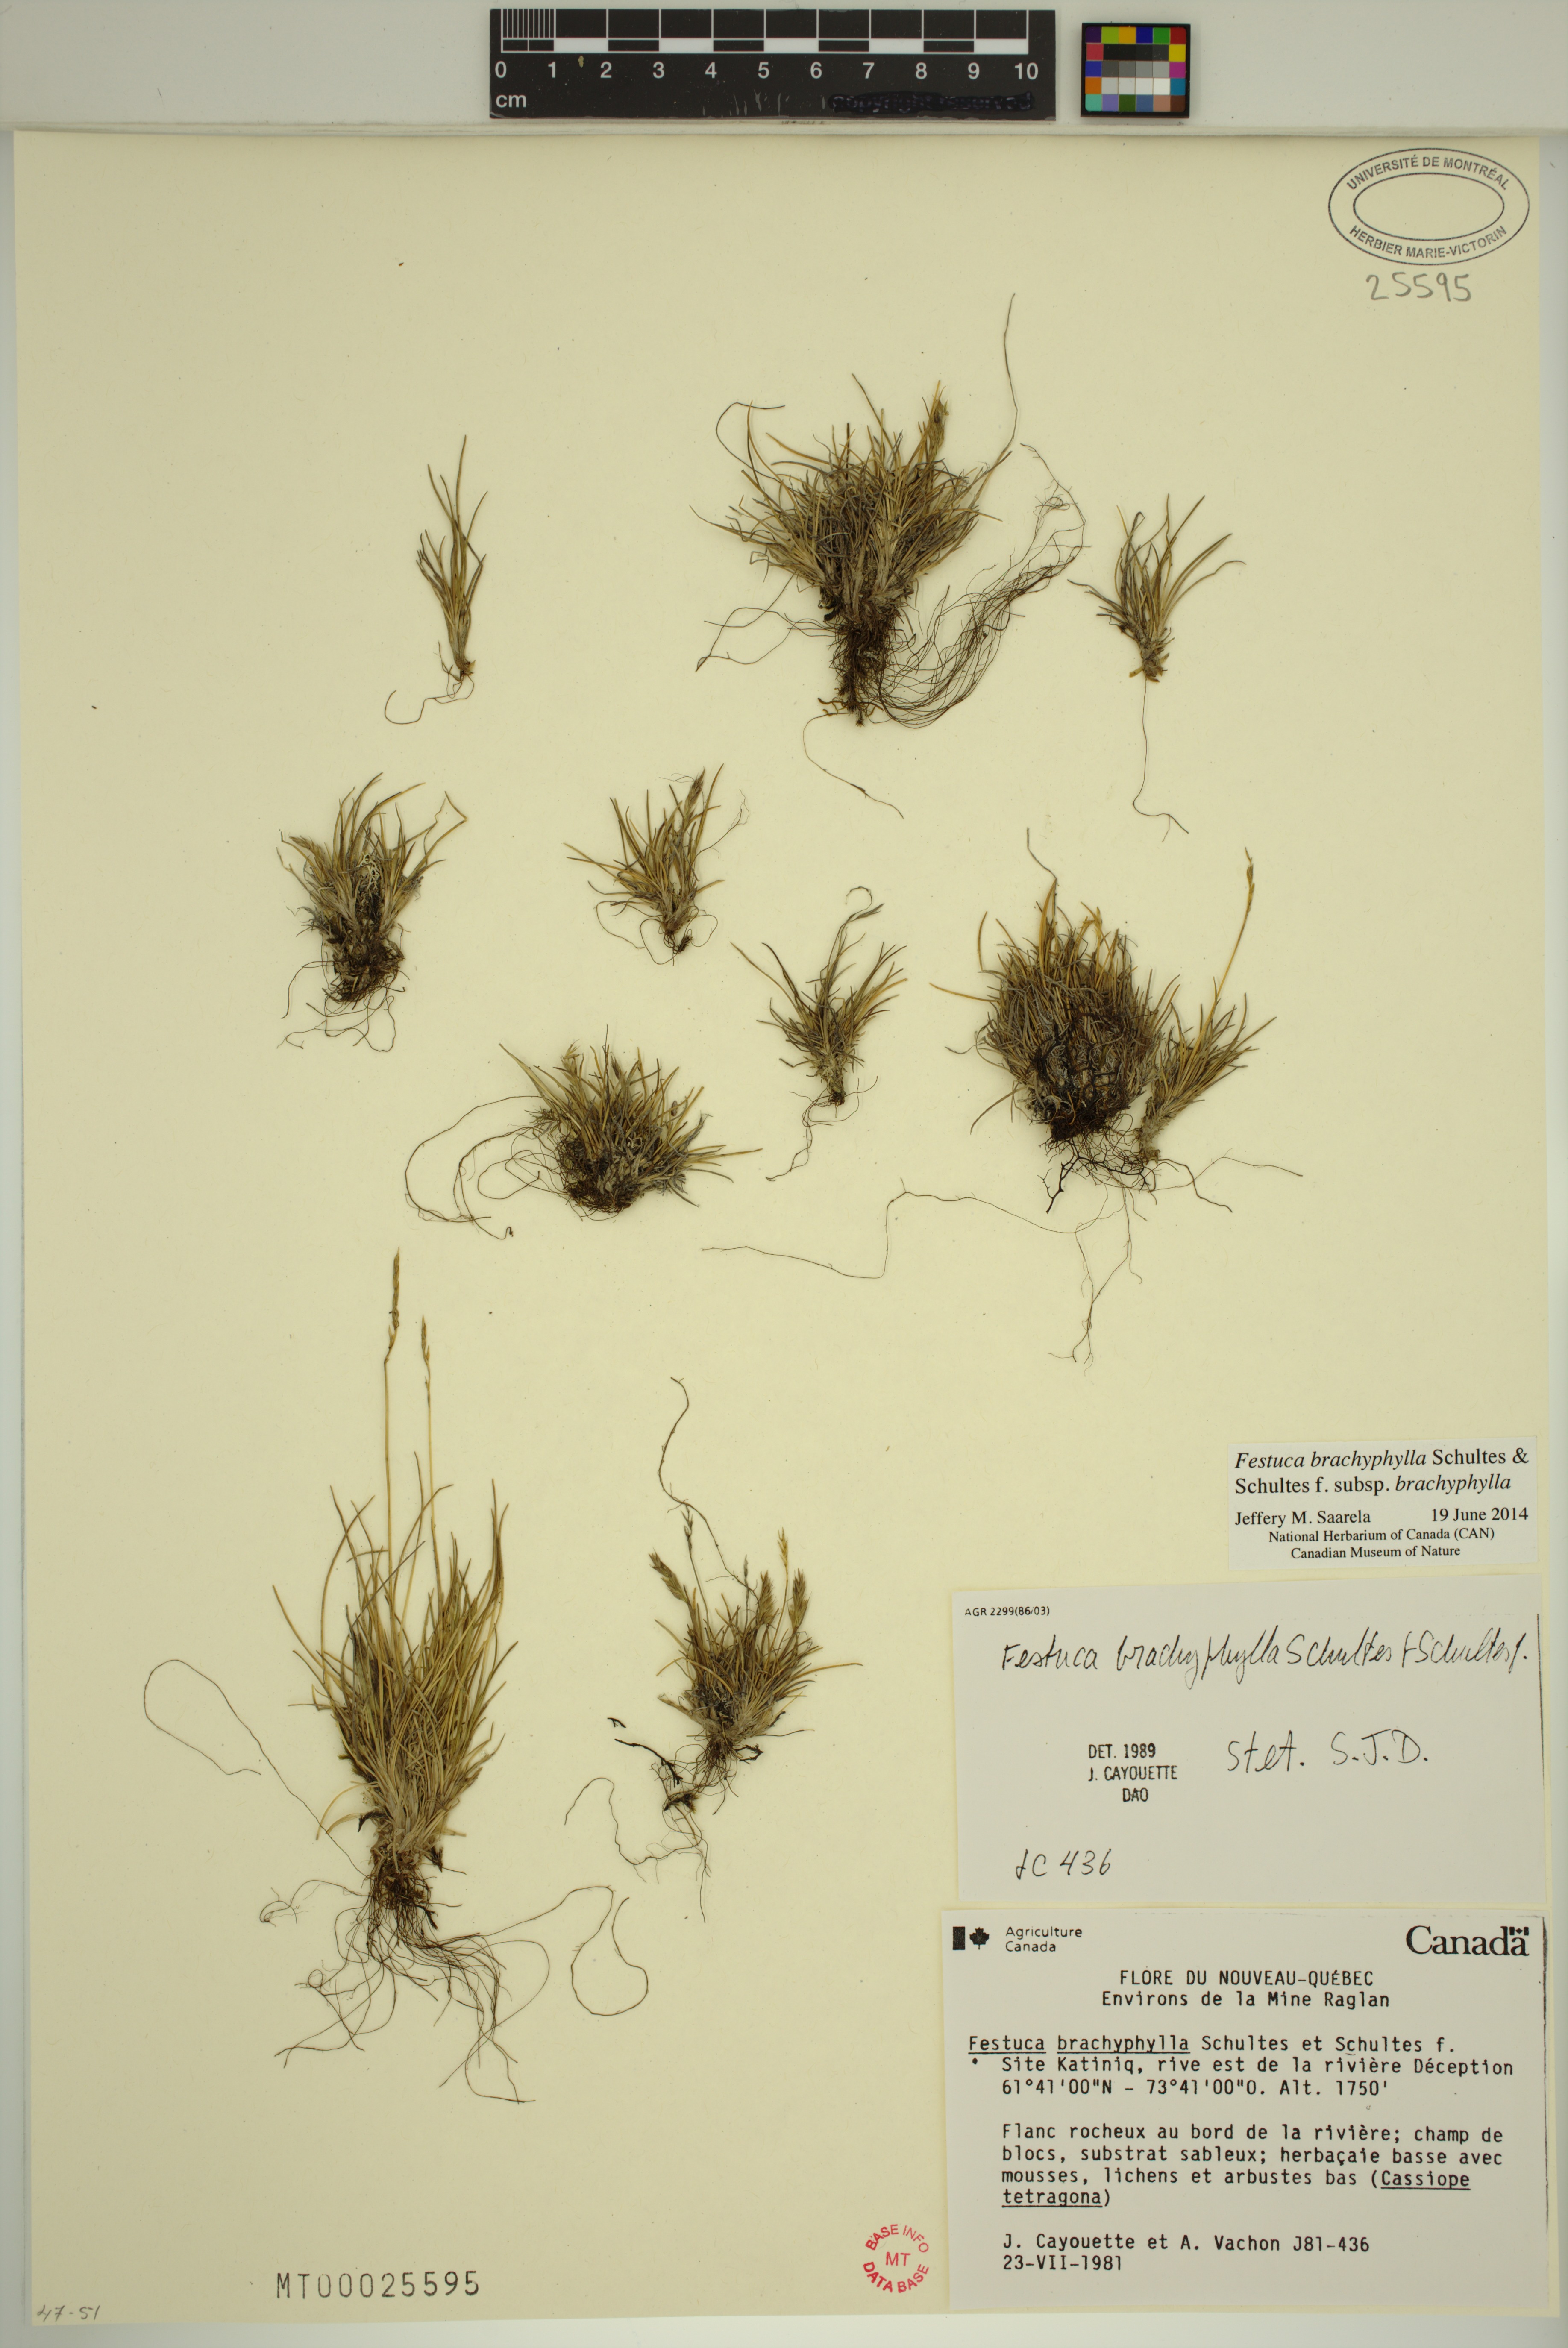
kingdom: Plantae
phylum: Tracheophyta
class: Liliopsida
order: Poales
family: Poaceae
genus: Festuca
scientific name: Festuca brachyphylla
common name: Alpine fescue
